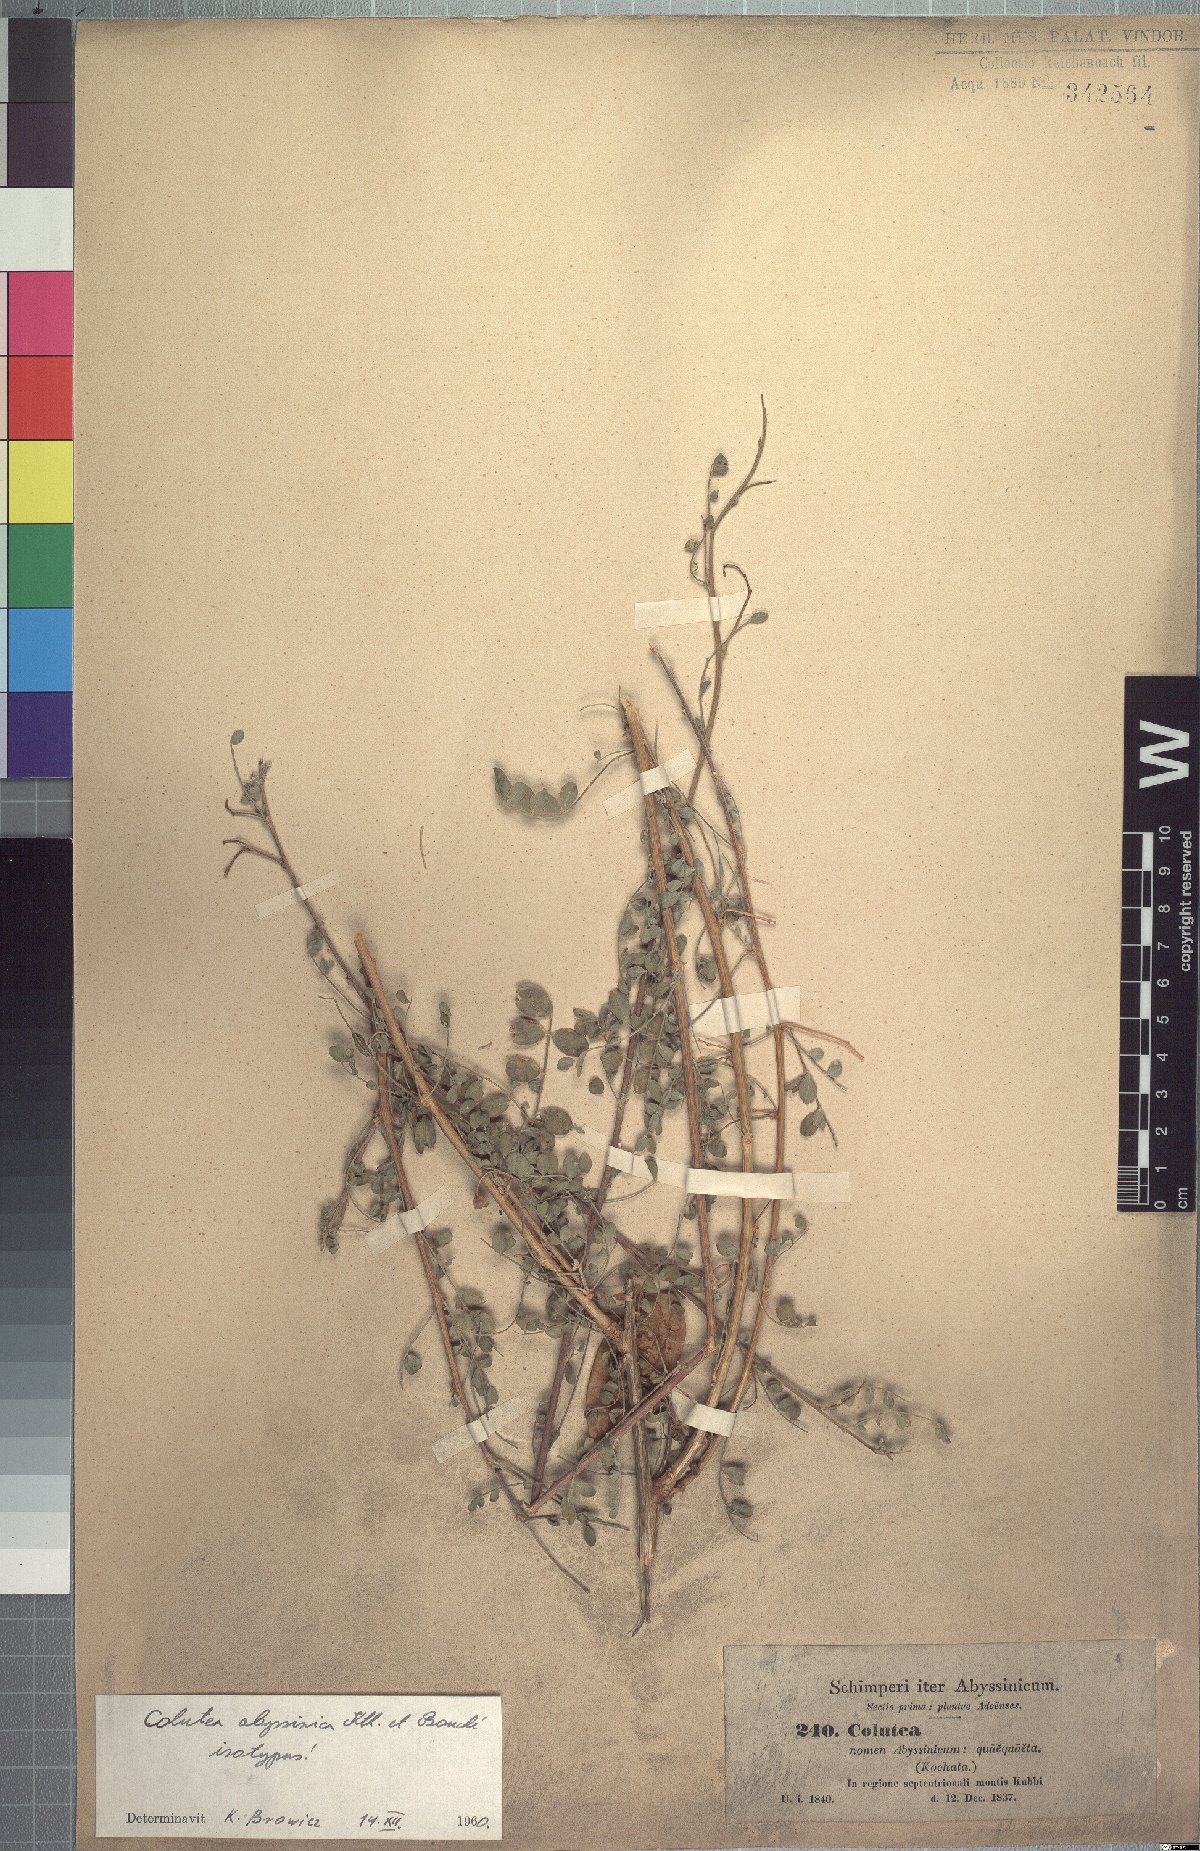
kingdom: Plantae
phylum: Tracheophyta
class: Magnoliopsida
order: Fabales
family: Fabaceae
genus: Colutea
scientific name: Colutea abyssinica
